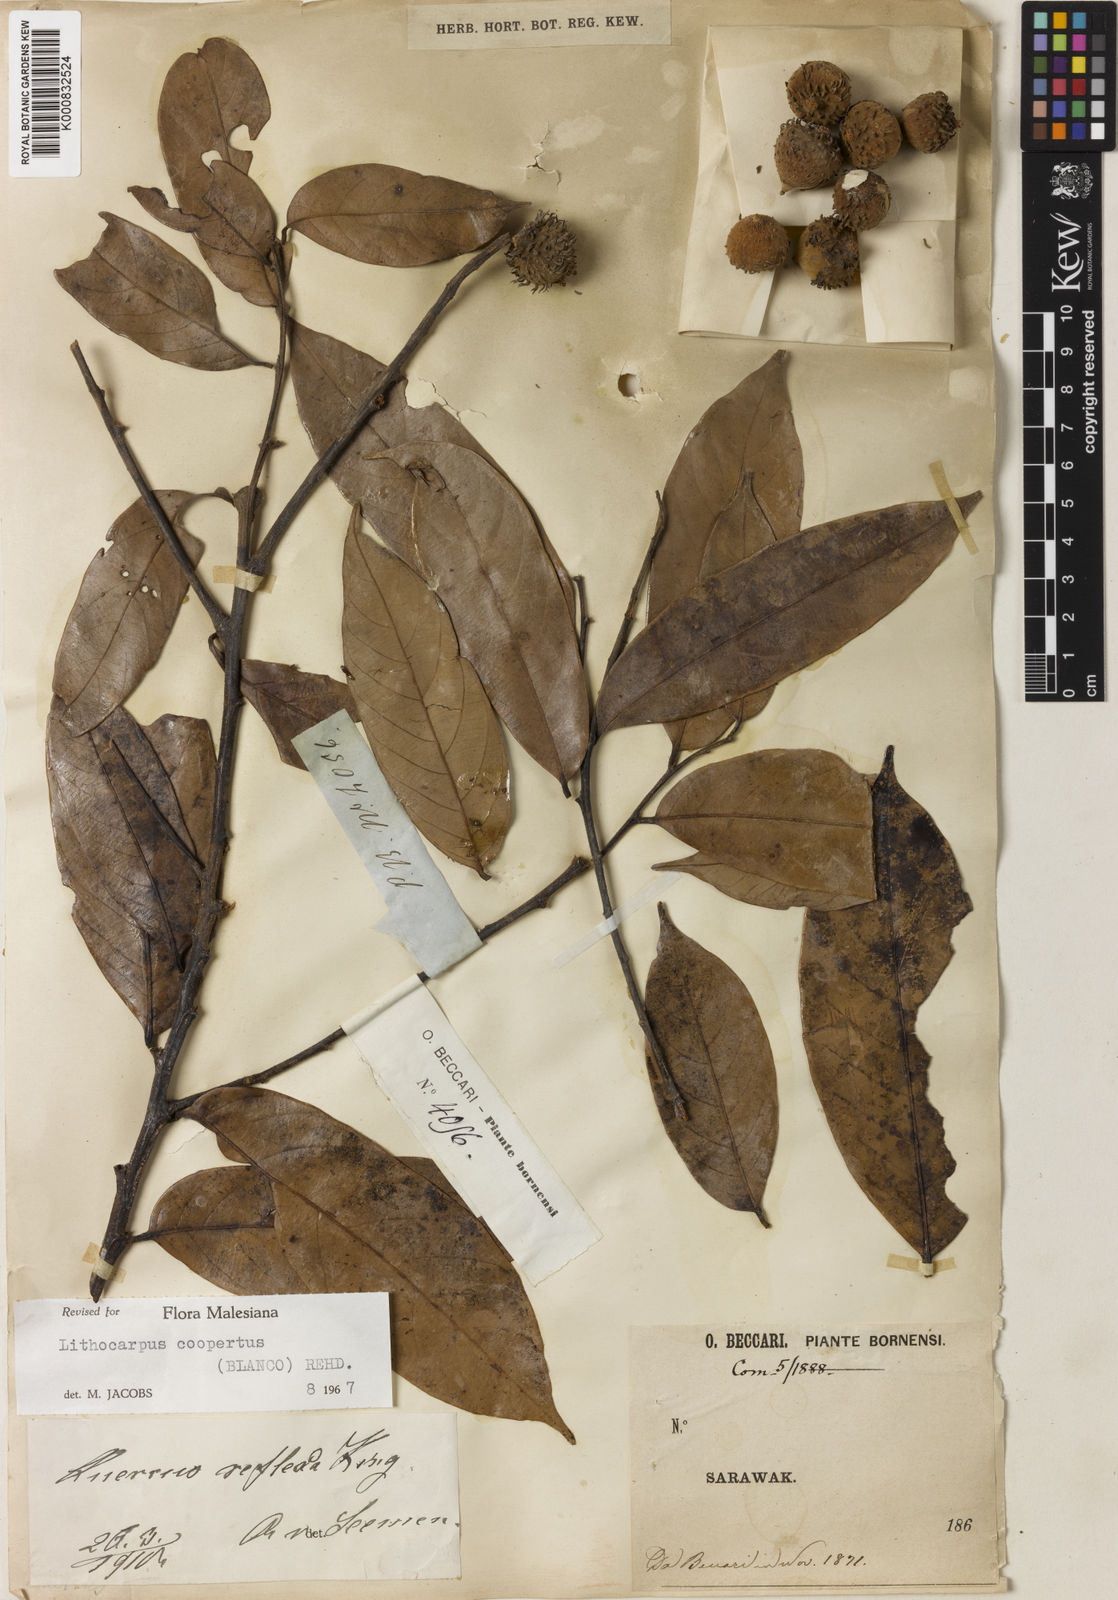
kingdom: Plantae
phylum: Tracheophyta
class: Magnoliopsida
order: Fagales
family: Fagaceae
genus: Lithocarpus
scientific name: Lithocarpus coopertus
